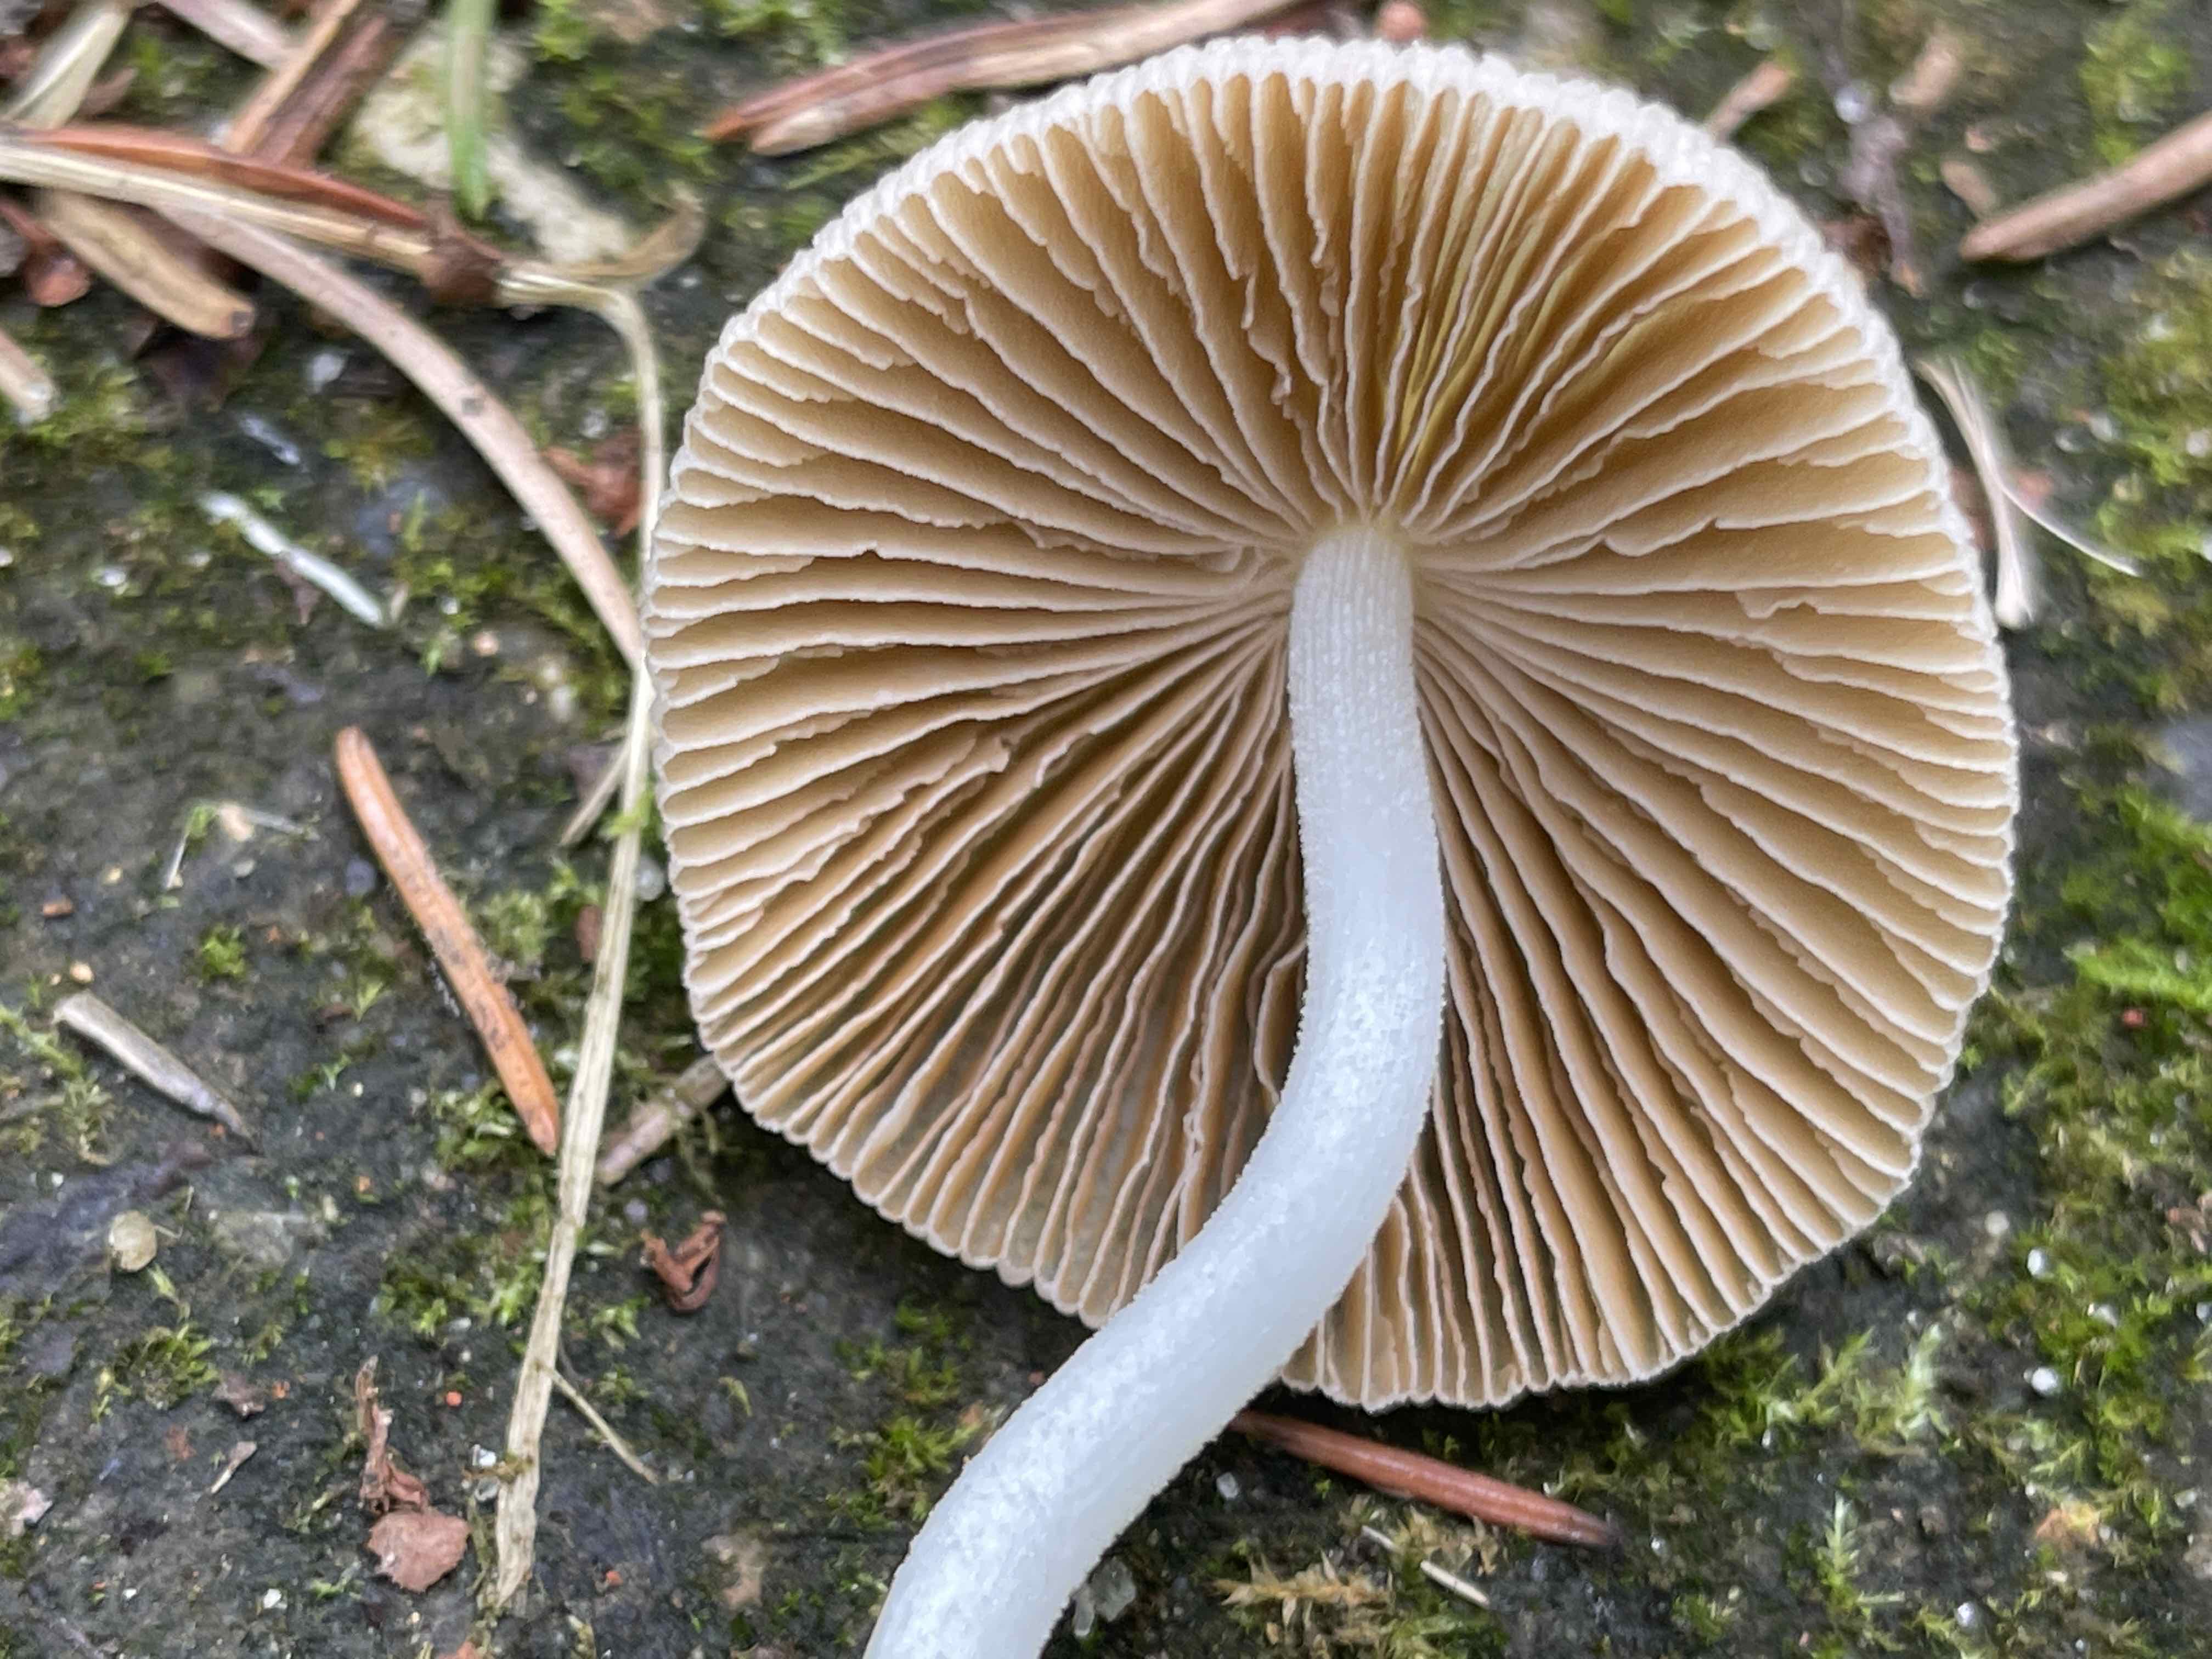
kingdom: Fungi
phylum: Basidiomycota
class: Agaricomycetes
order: Agaricales
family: Bolbitiaceae
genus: Bolbitius
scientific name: Bolbitius titubans
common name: almindelig gulhat
